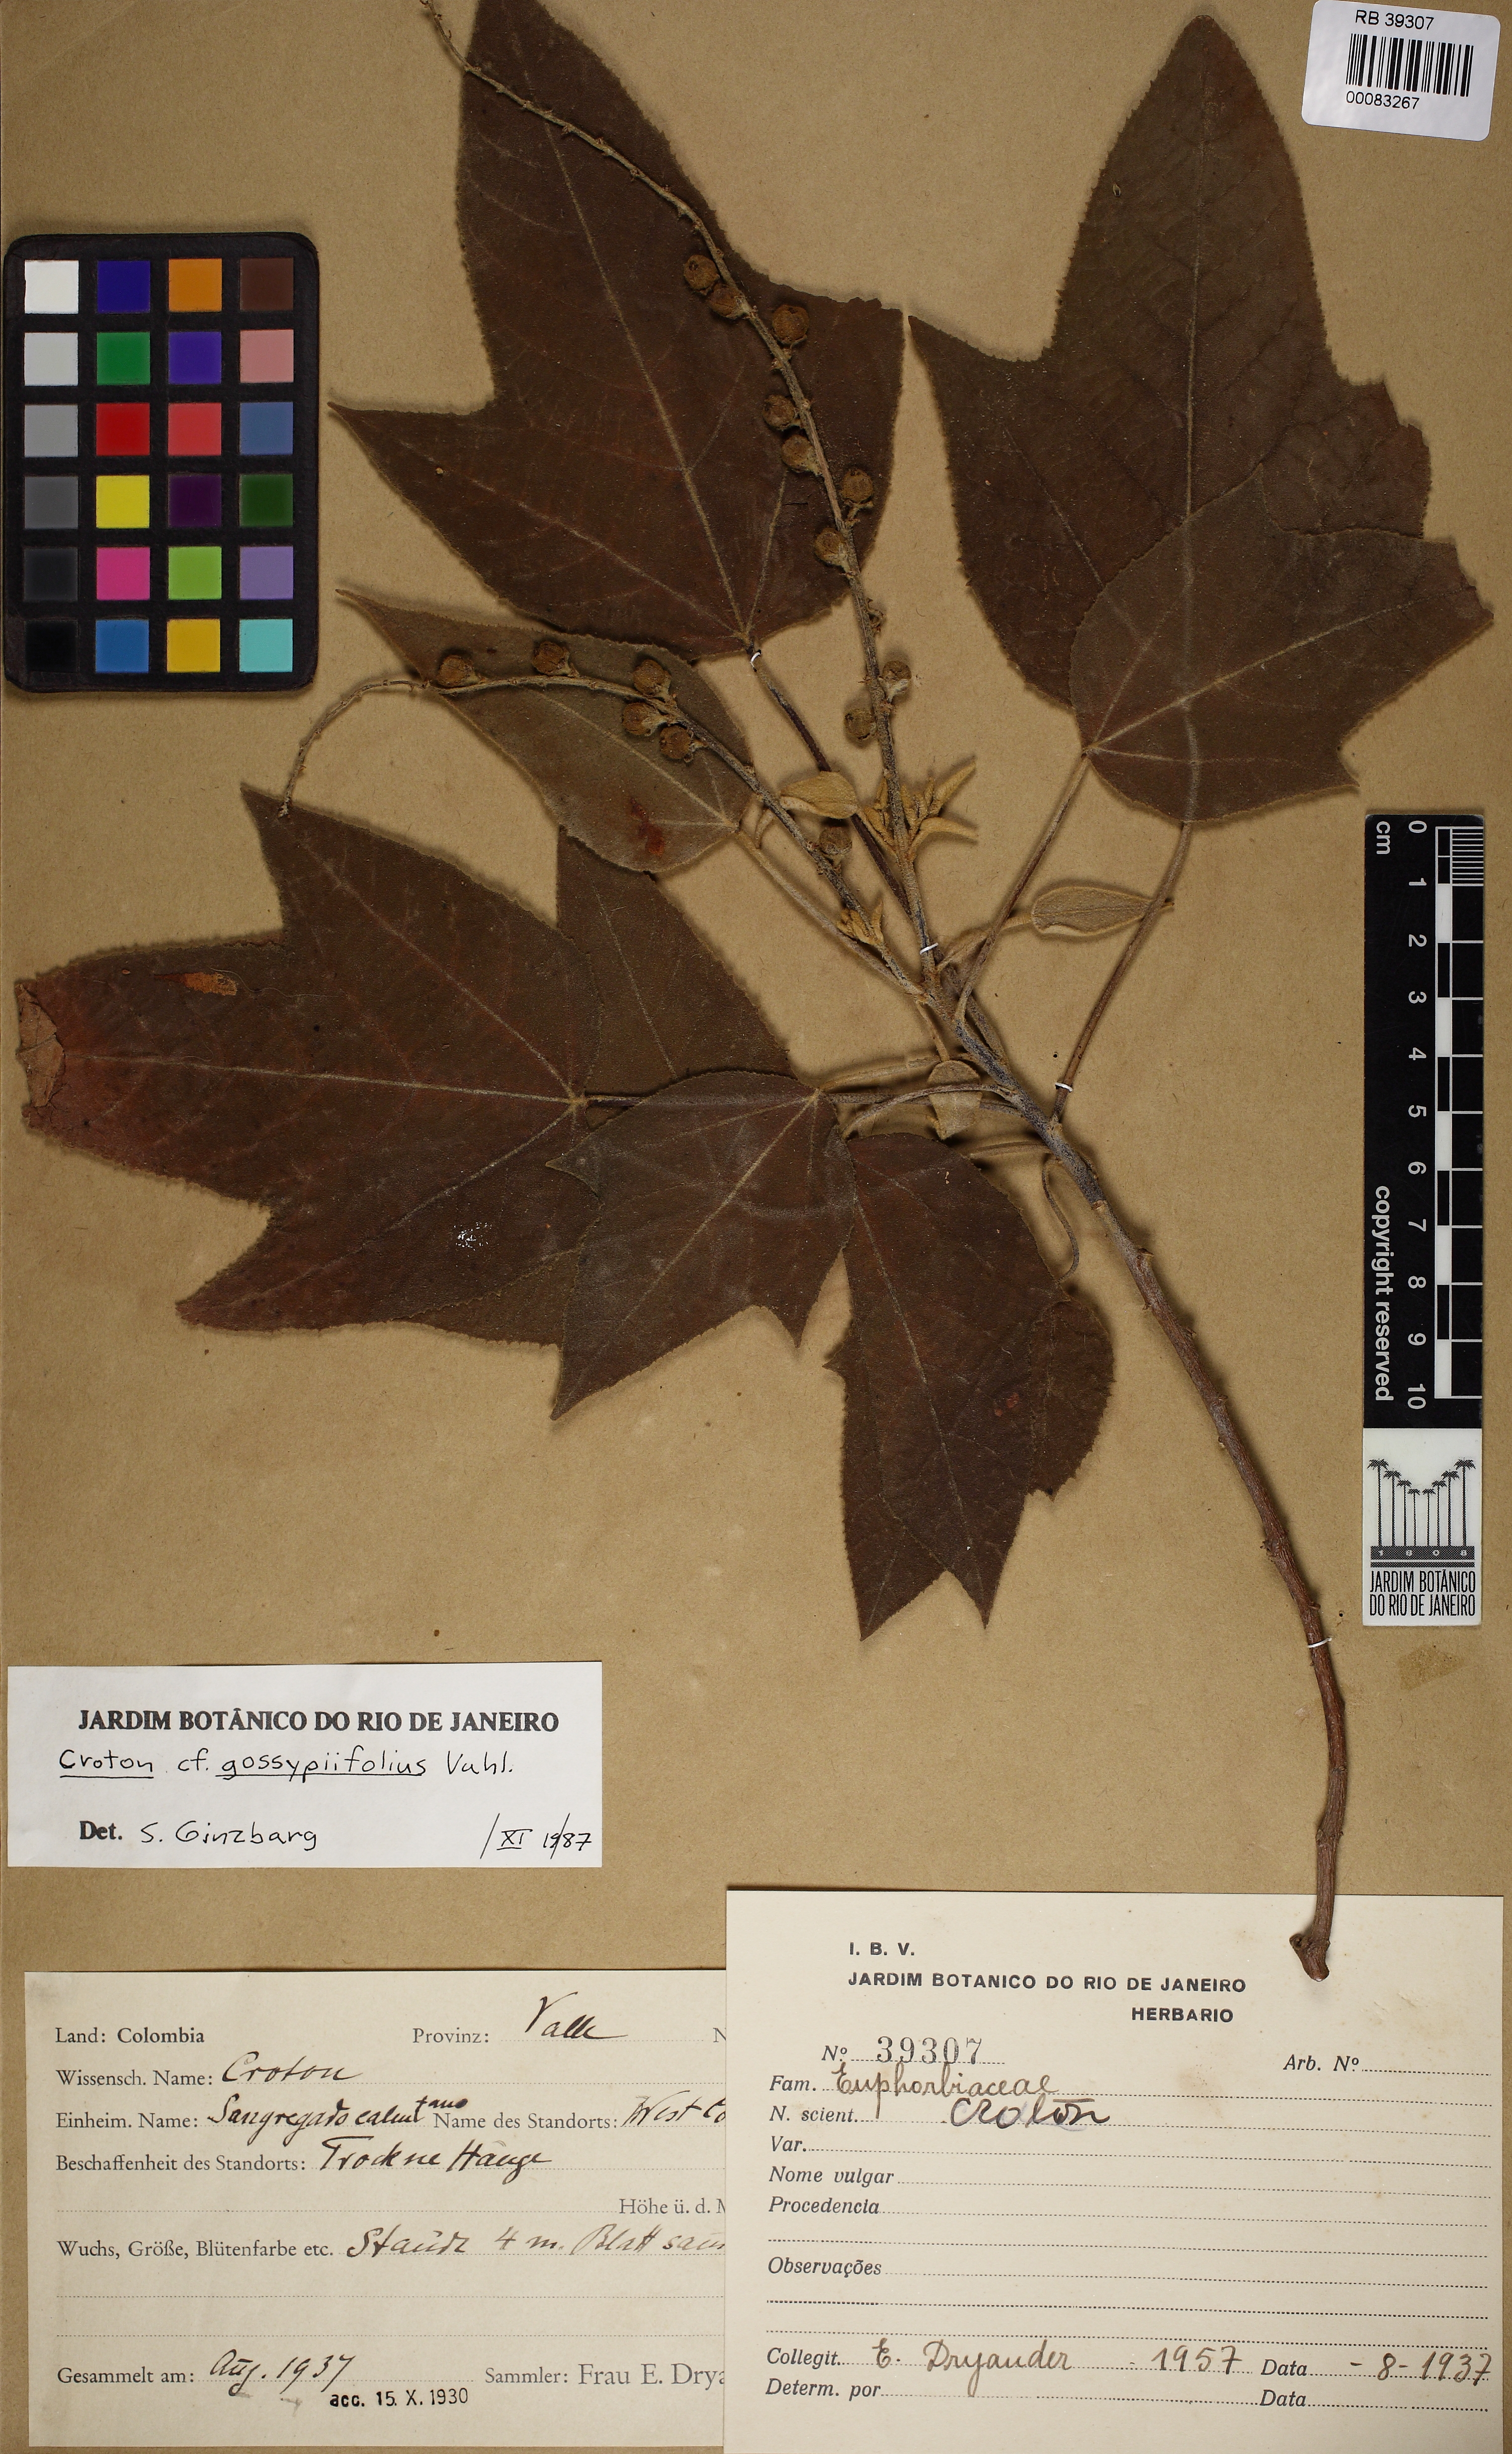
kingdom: Plantae
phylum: Tracheophyta
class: Magnoliopsida
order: Malpighiales
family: Euphorbiaceae
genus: Croton
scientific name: Croton gossypiifolius
